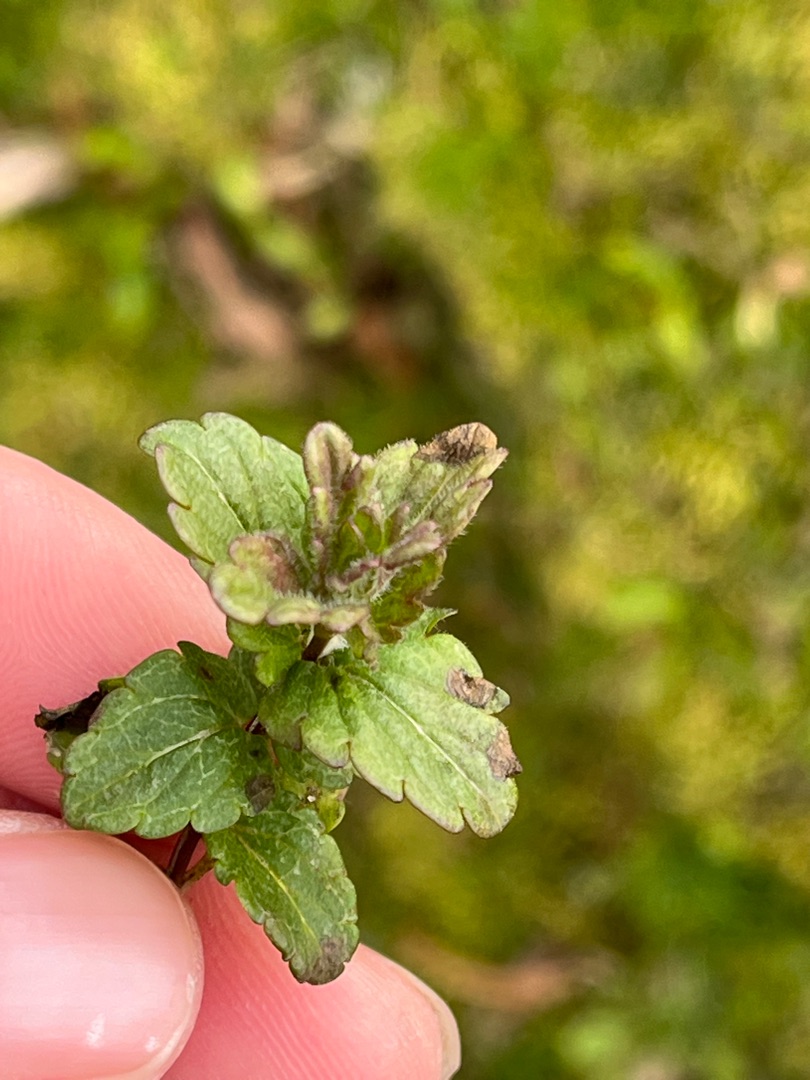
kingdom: Plantae
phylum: Tracheophyta
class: Magnoliopsida
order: Lamiales
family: Plantaginaceae
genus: Veronica
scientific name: Veronica chamaedrys
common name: Tveskægget ærenpris
